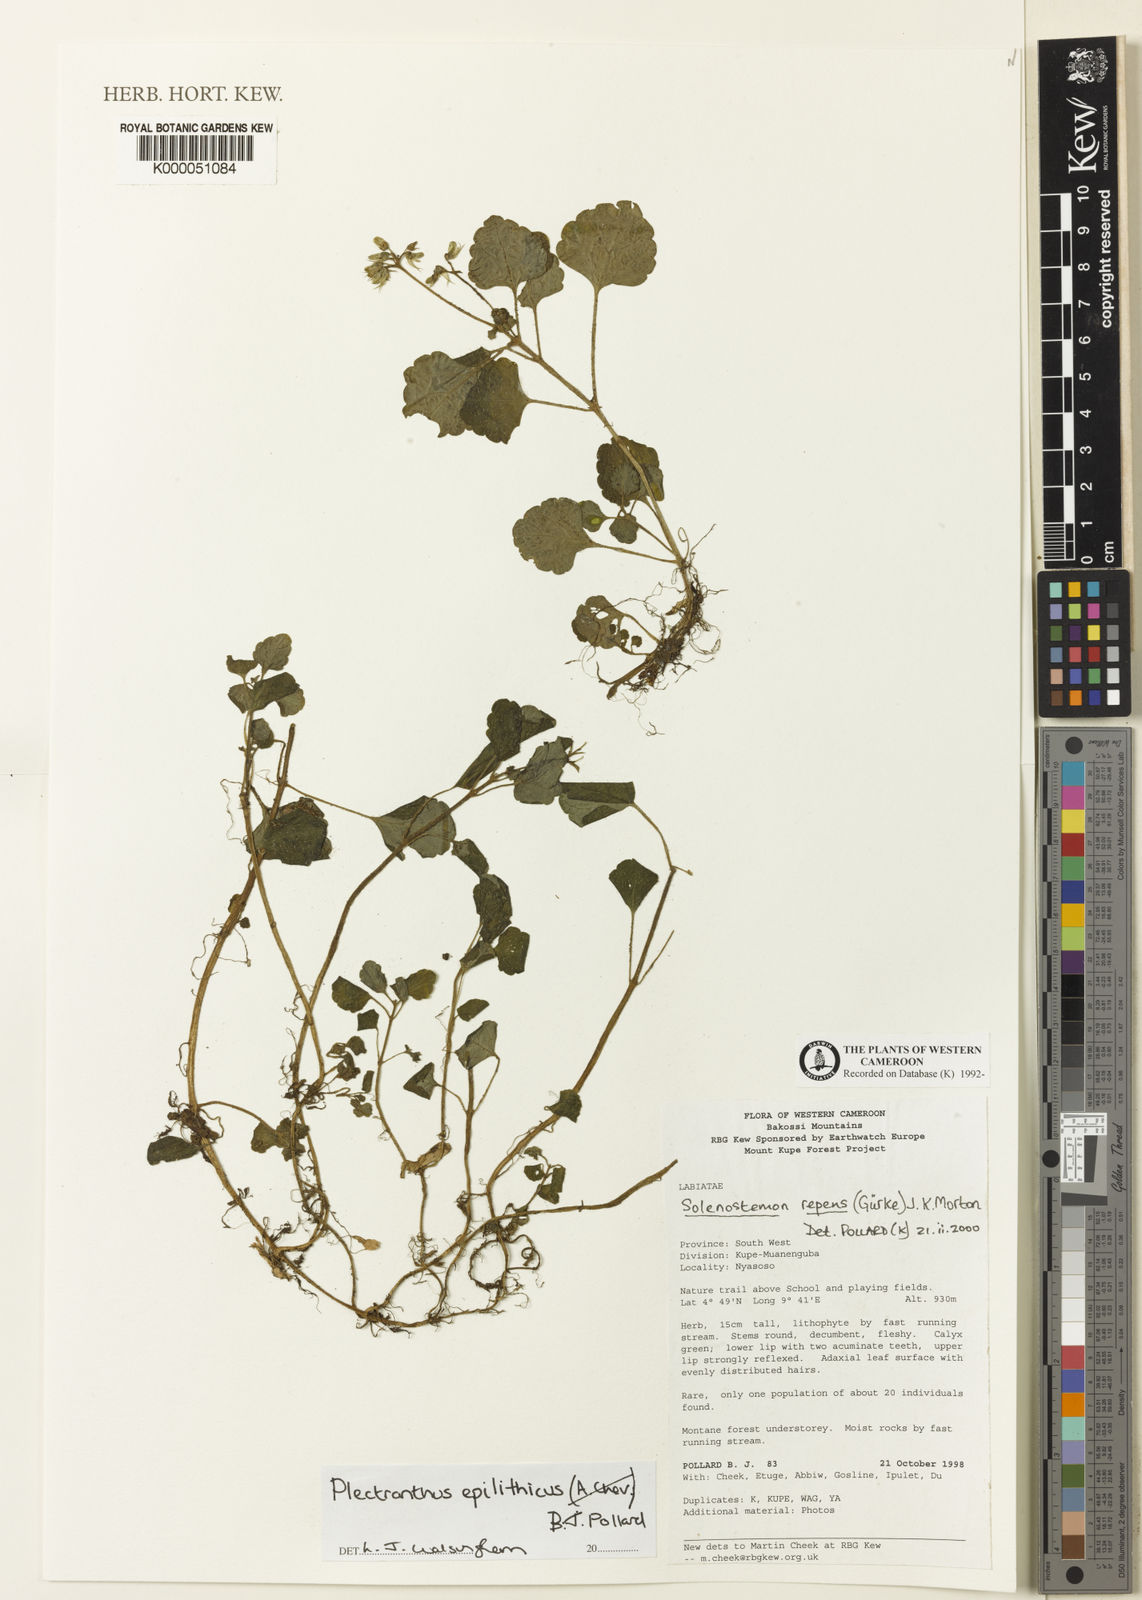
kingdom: Plantae
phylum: Tracheophyta
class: Magnoliopsida
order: Lamiales
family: Lamiaceae
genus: Coleus
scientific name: Coleus repens
